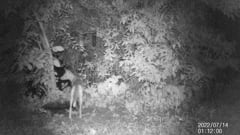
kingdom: Animalia
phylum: Chordata
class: Mammalia
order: Carnivora
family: Canidae
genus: Vulpes
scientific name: Vulpes vulpes
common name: Red fox
